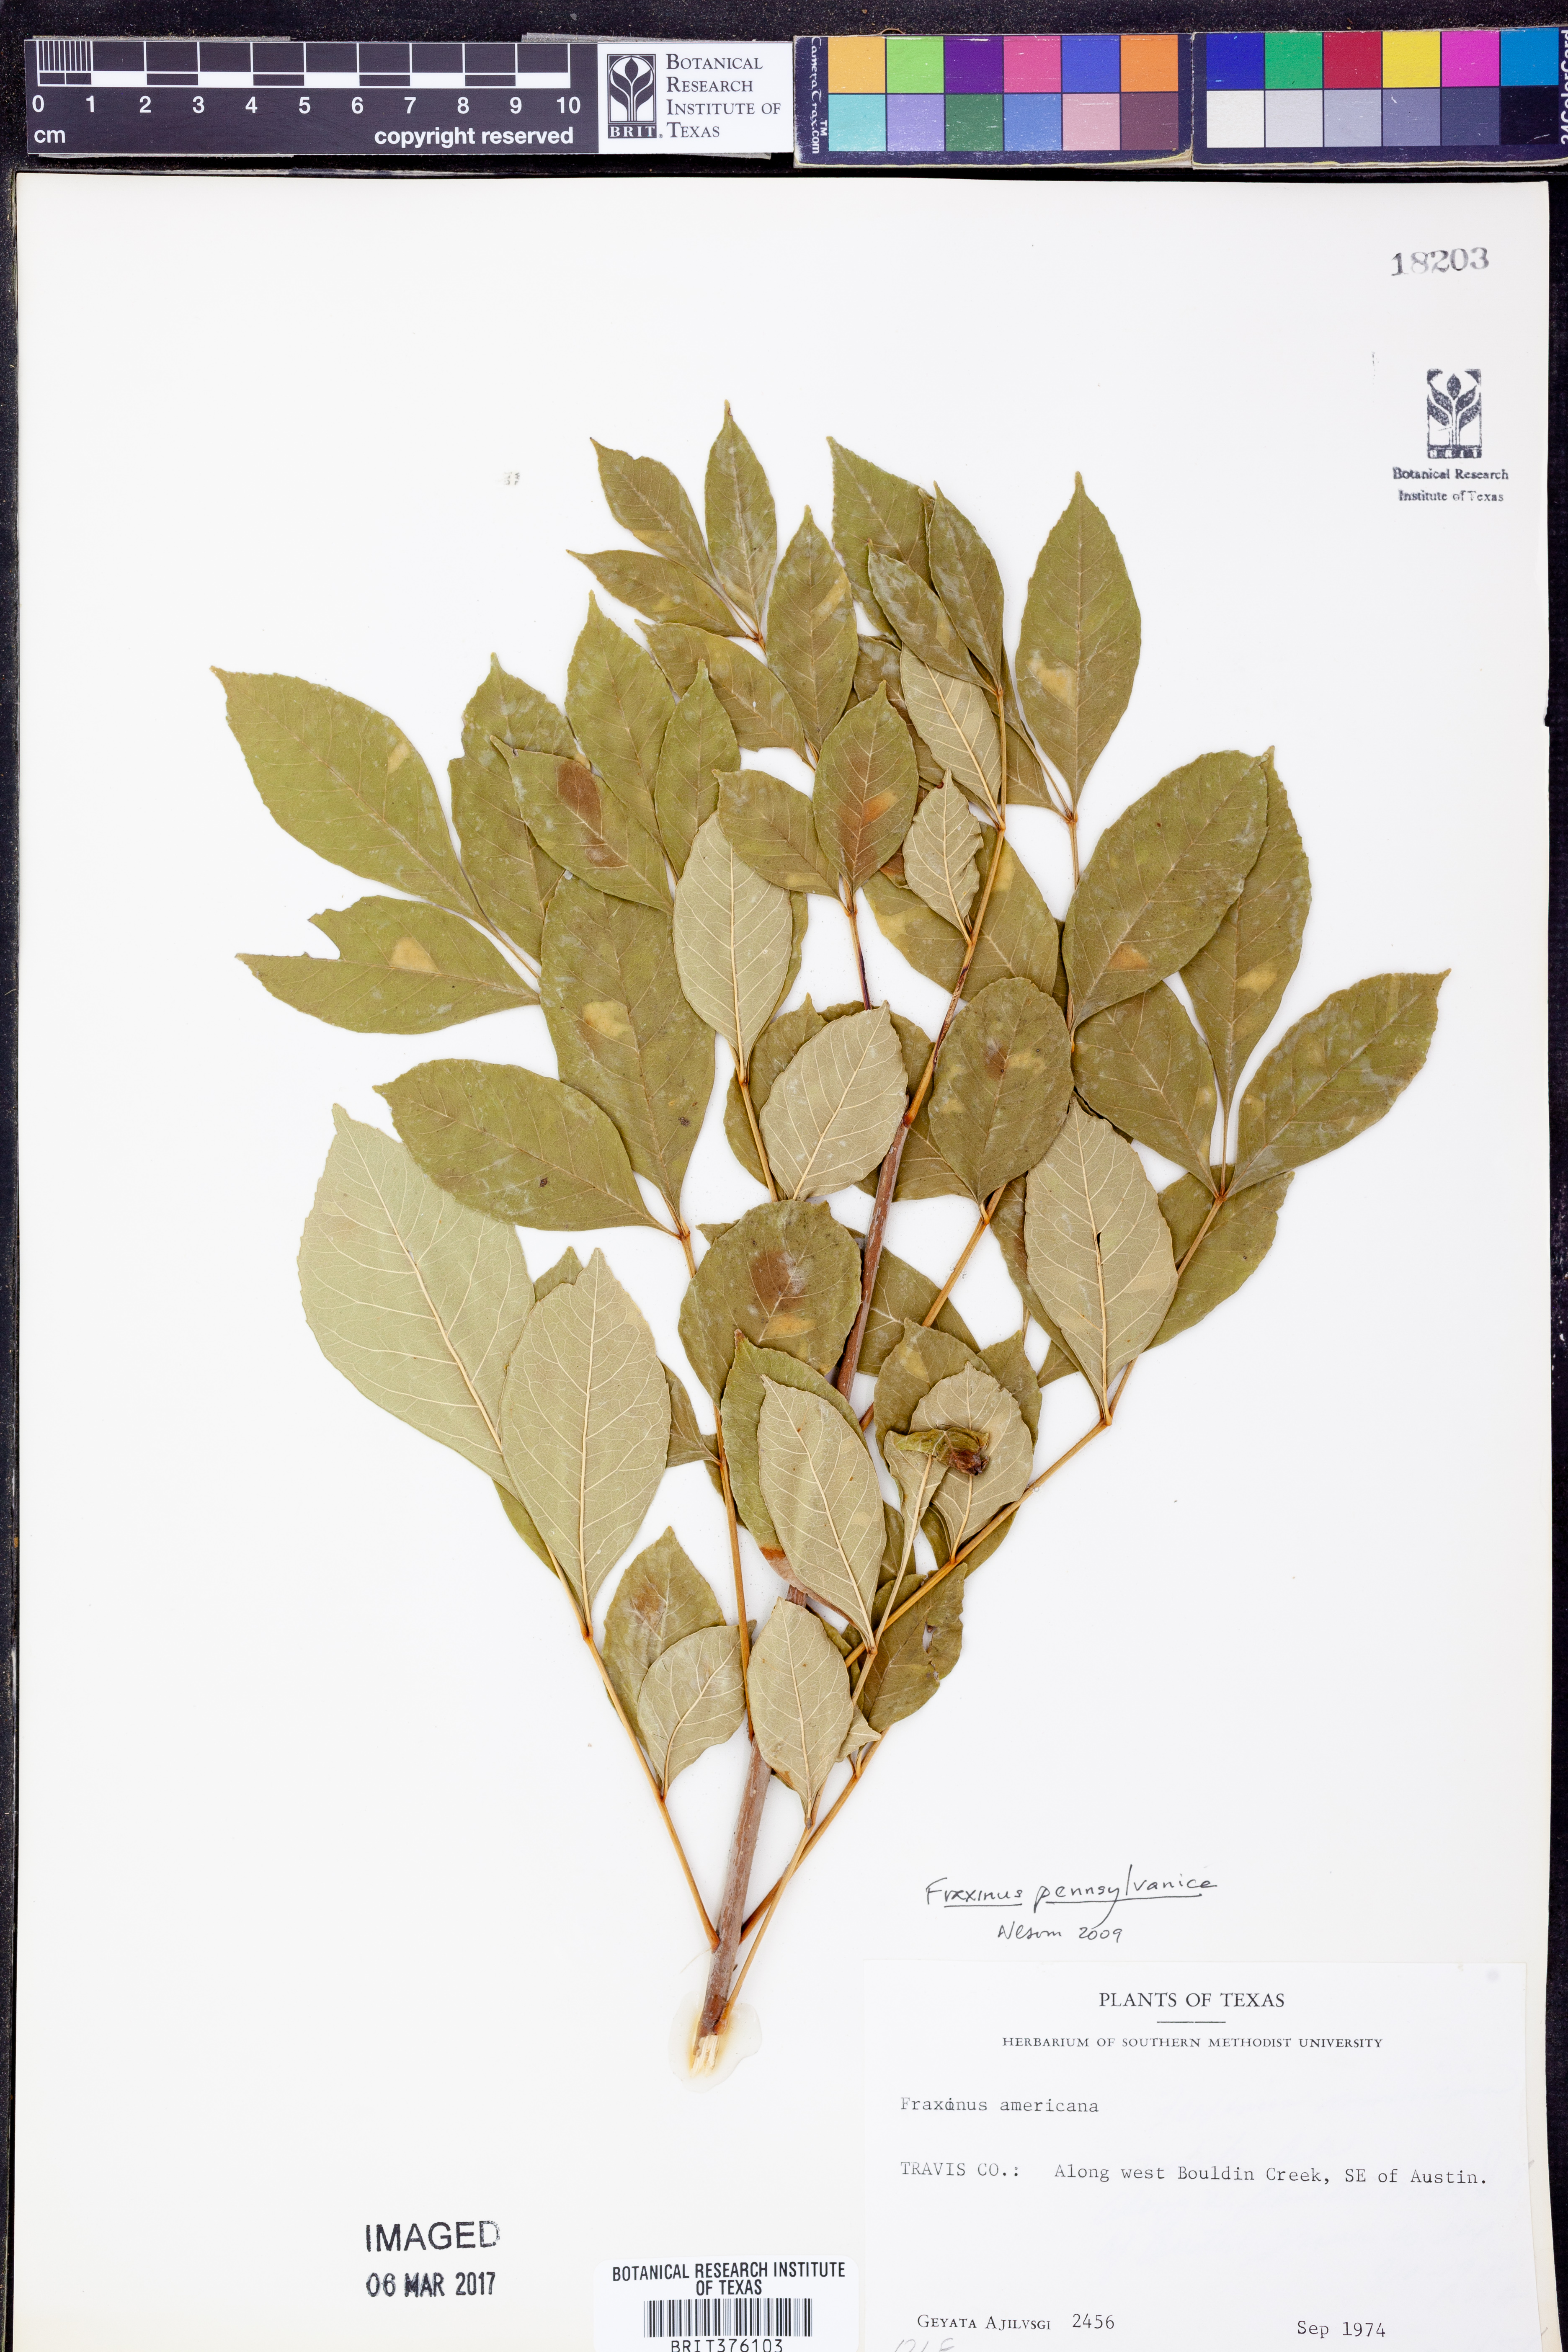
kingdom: Plantae
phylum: Tracheophyta
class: Magnoliopsida
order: Lamiales
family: Oleaceae
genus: Fraxinus
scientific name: Fraxinus pennsylvanica
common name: Green ash
